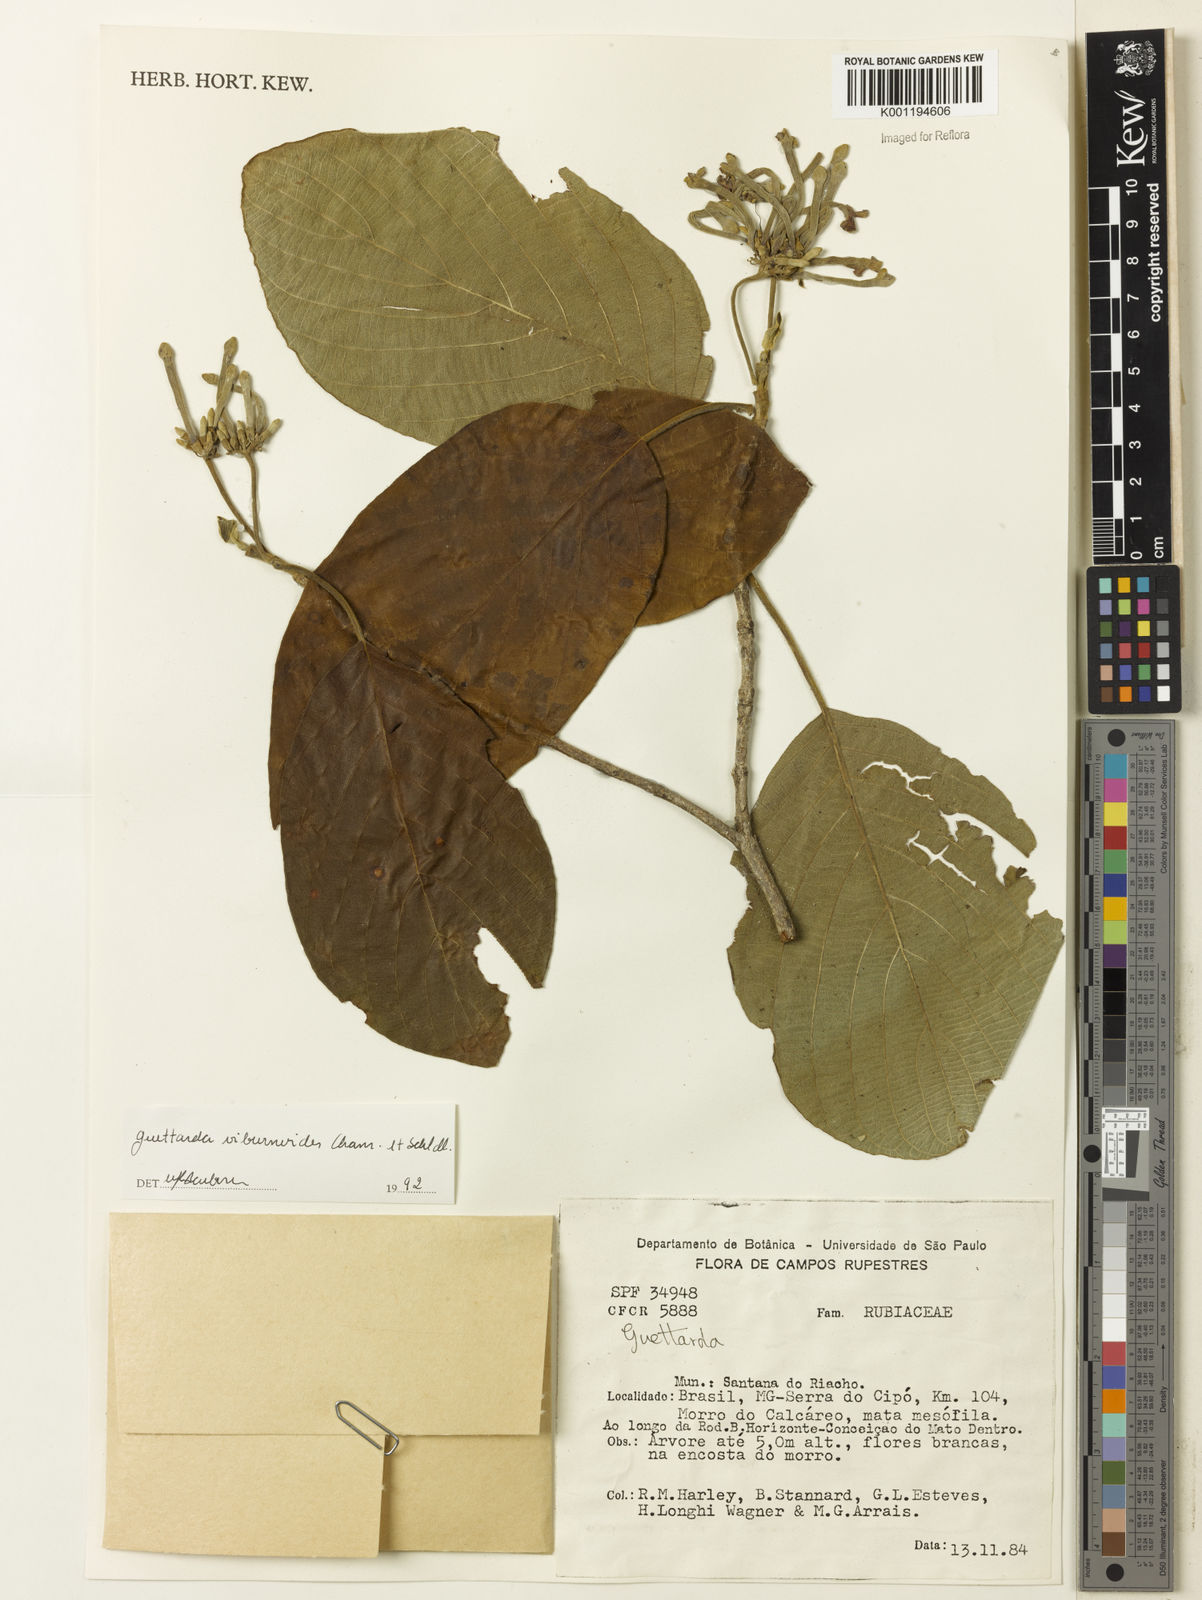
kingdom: Plantae
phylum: Tracheophyta
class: Magnoliopsida
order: Gentianales
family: Rubiaceae
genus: Guettarda
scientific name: Guettarda viburnoides
